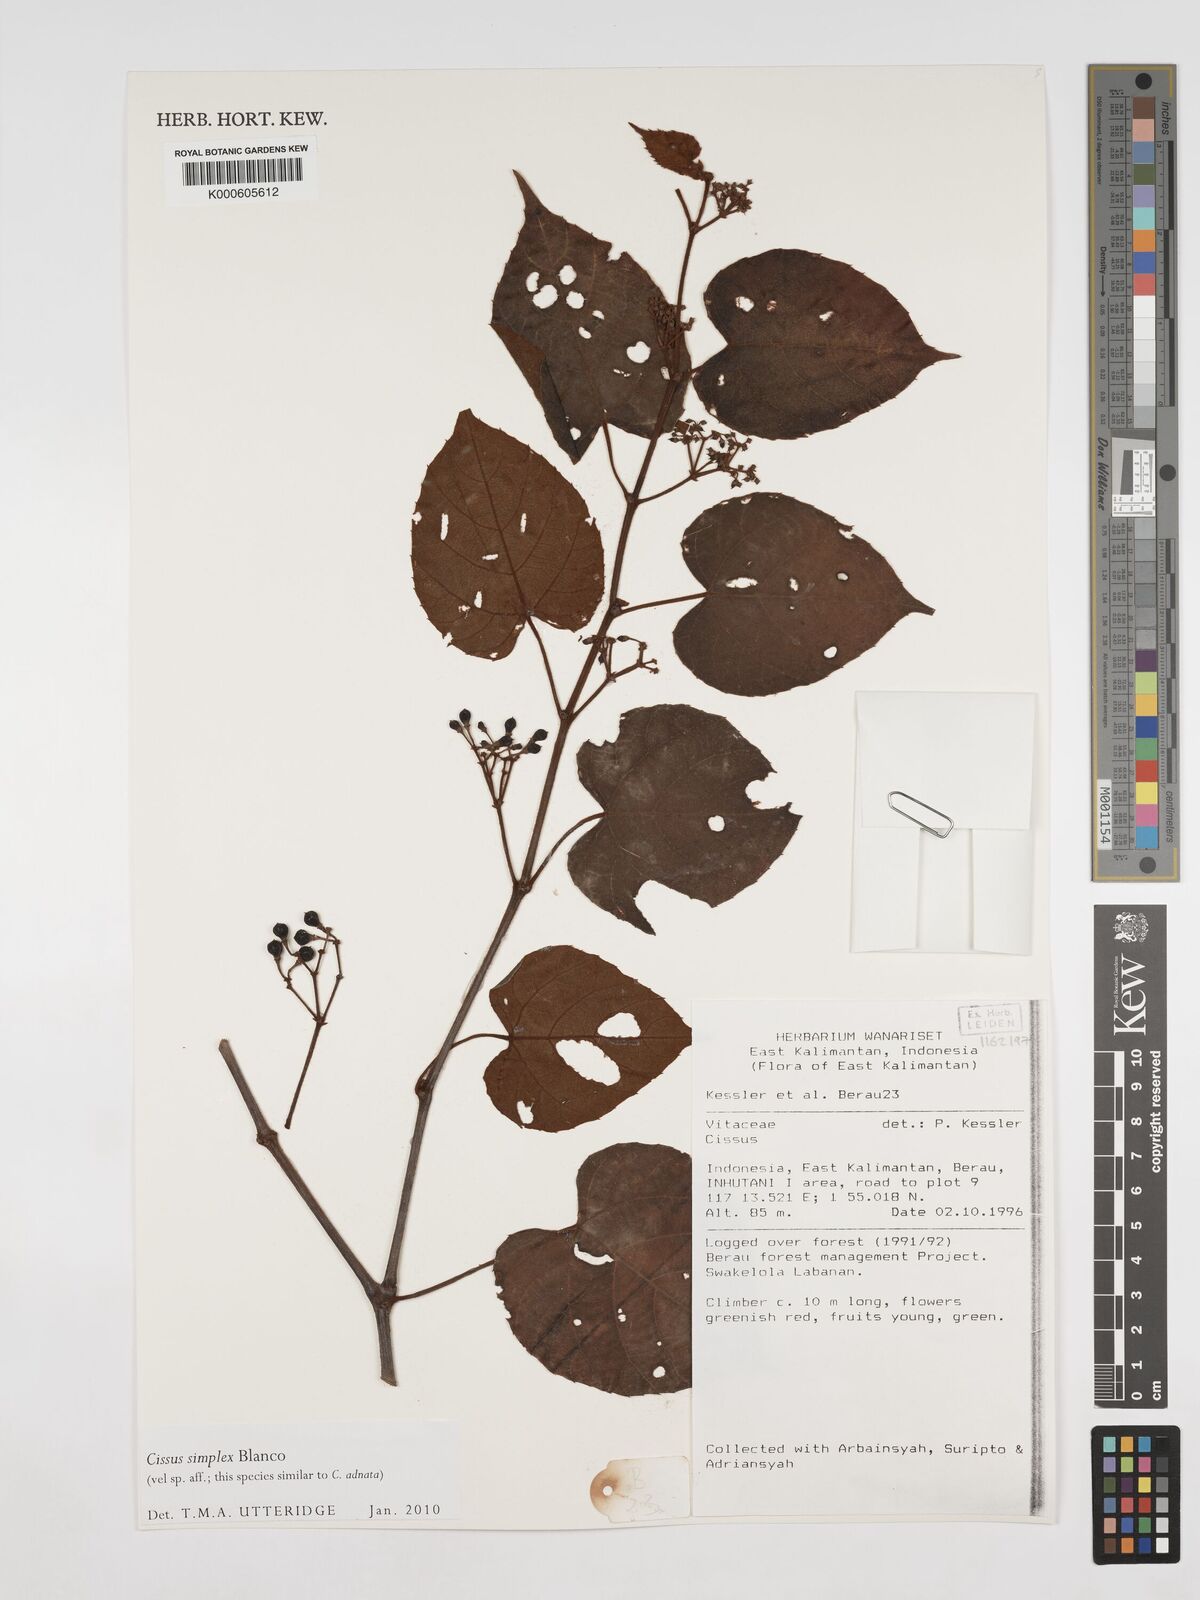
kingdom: Plantae
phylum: Tracheophyta
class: Magnoliopsida
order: Vitales
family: Vitaceae
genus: Cissus
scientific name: Cissus aristata
